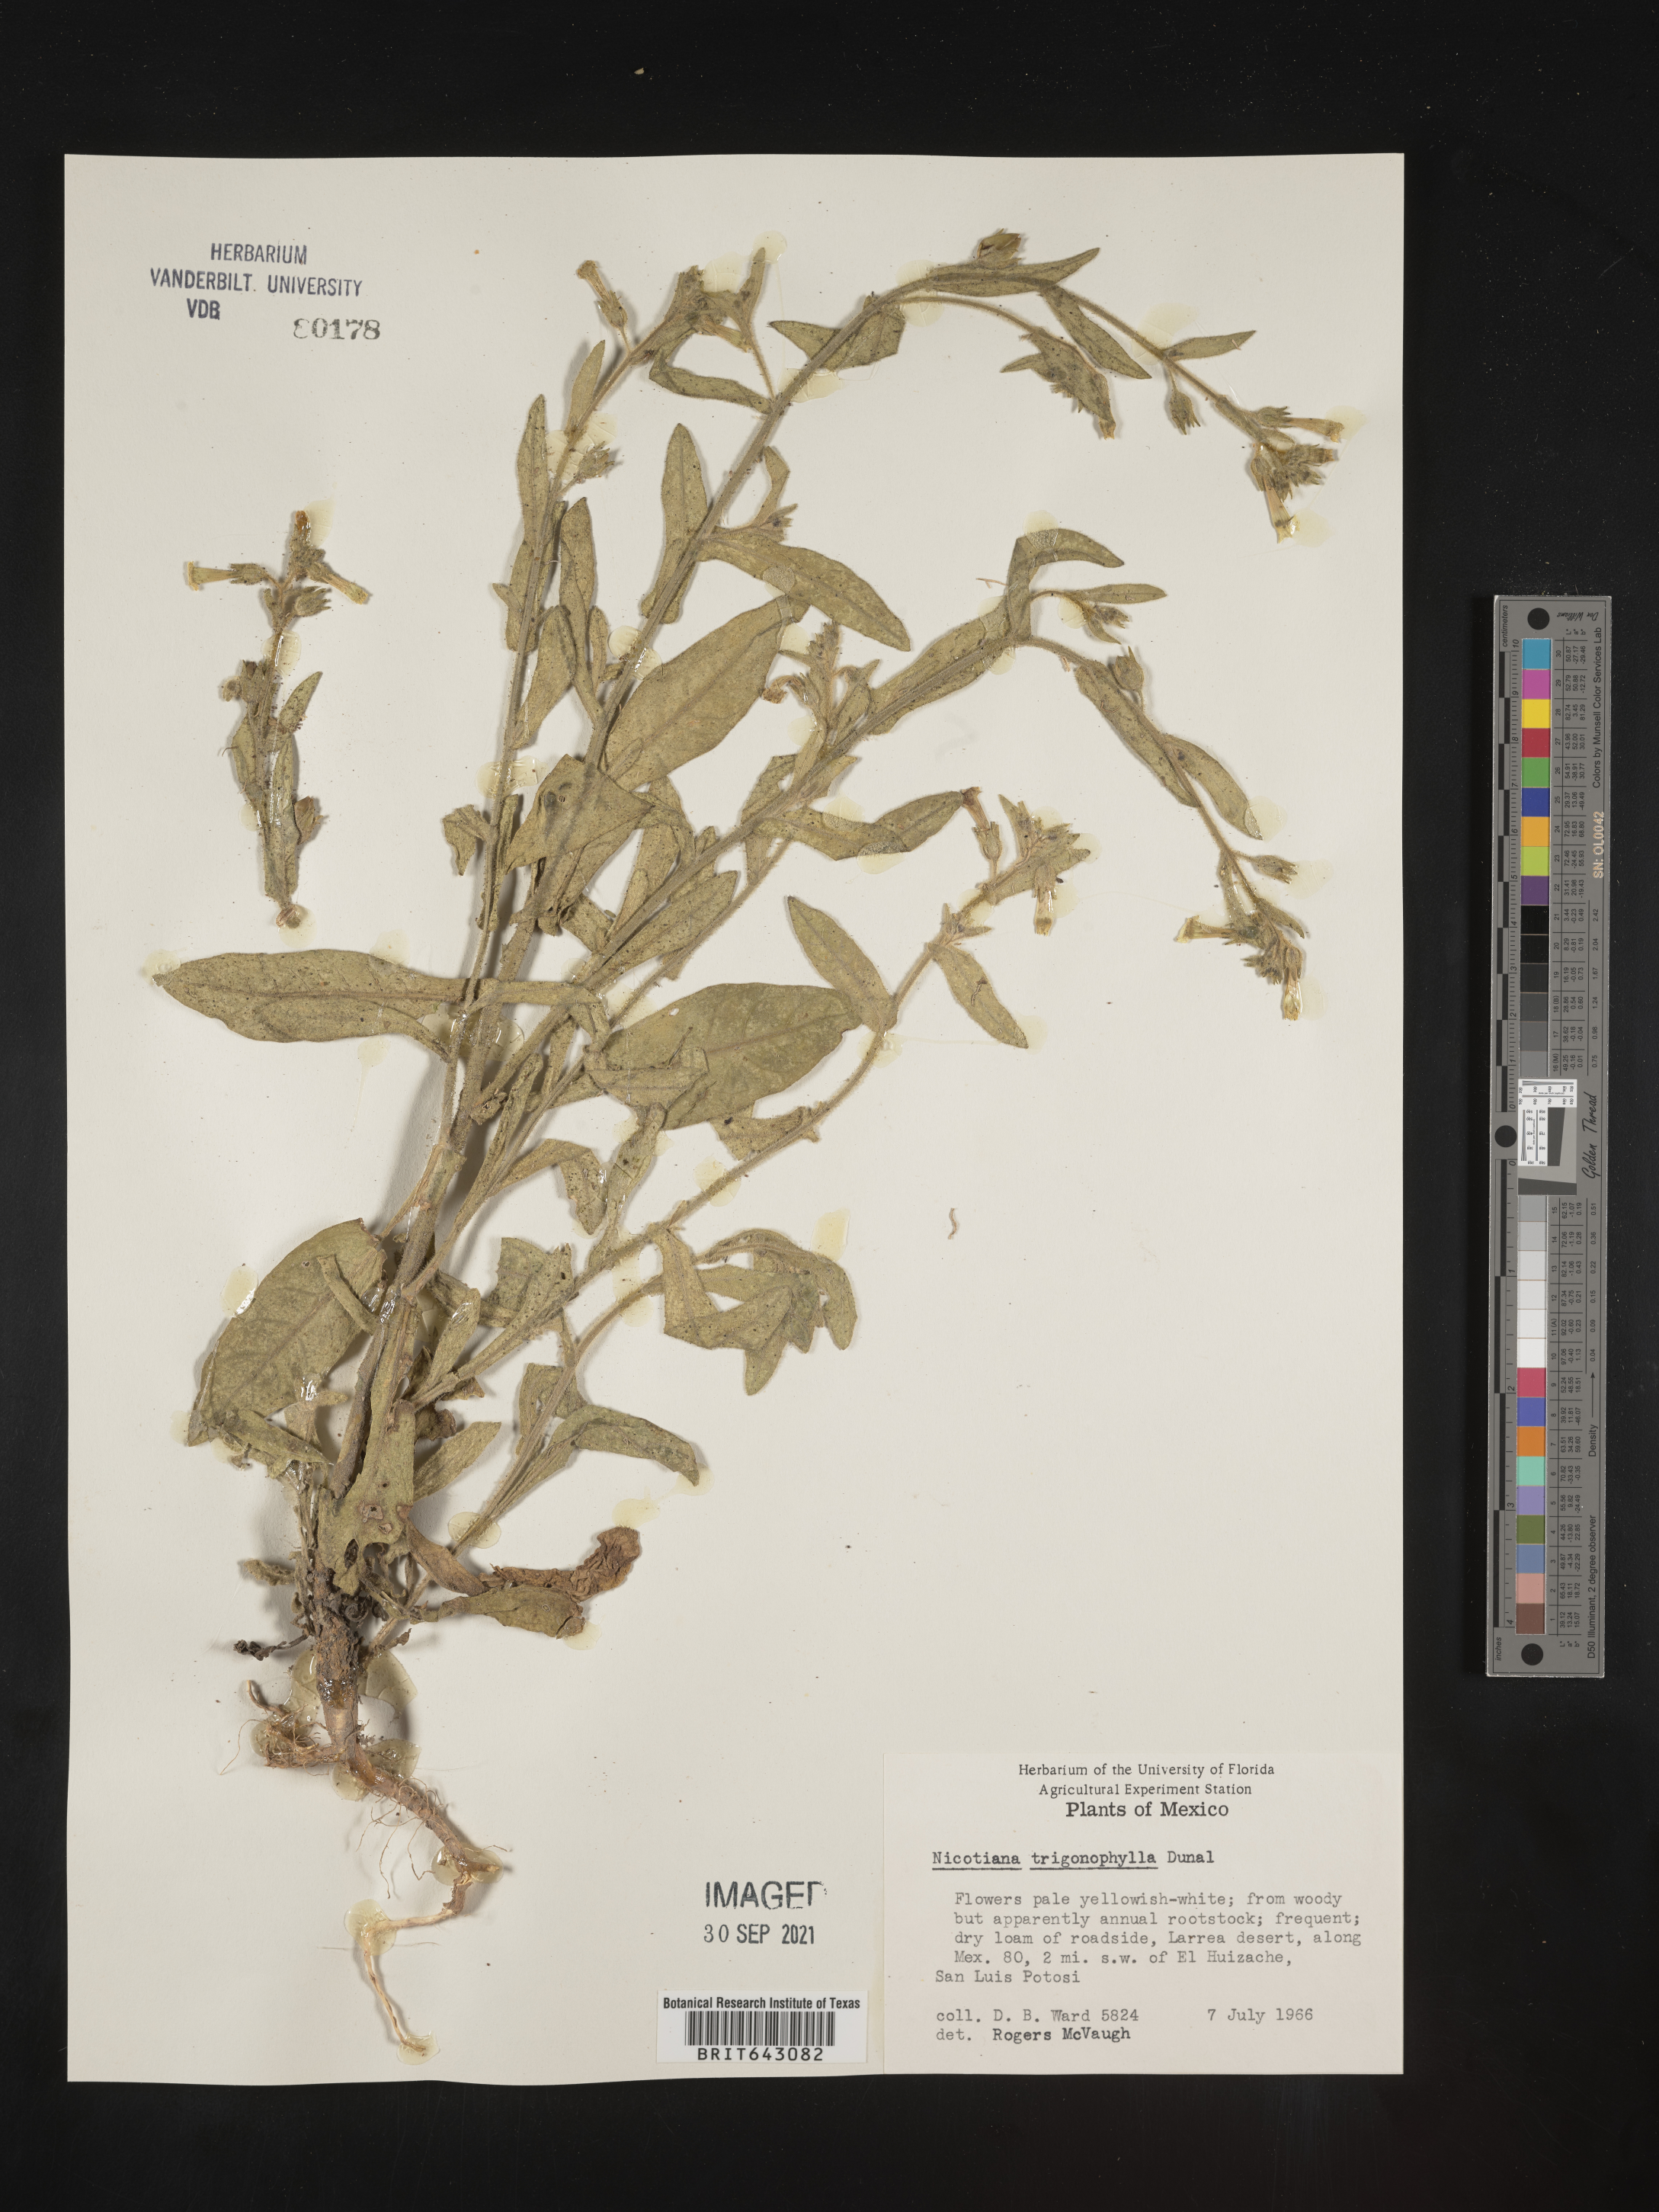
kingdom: Plantae
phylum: Tracheophyta
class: Magnoliopsida
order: Solanales
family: Solanaceae
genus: Nicotiana
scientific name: Nicotiana
